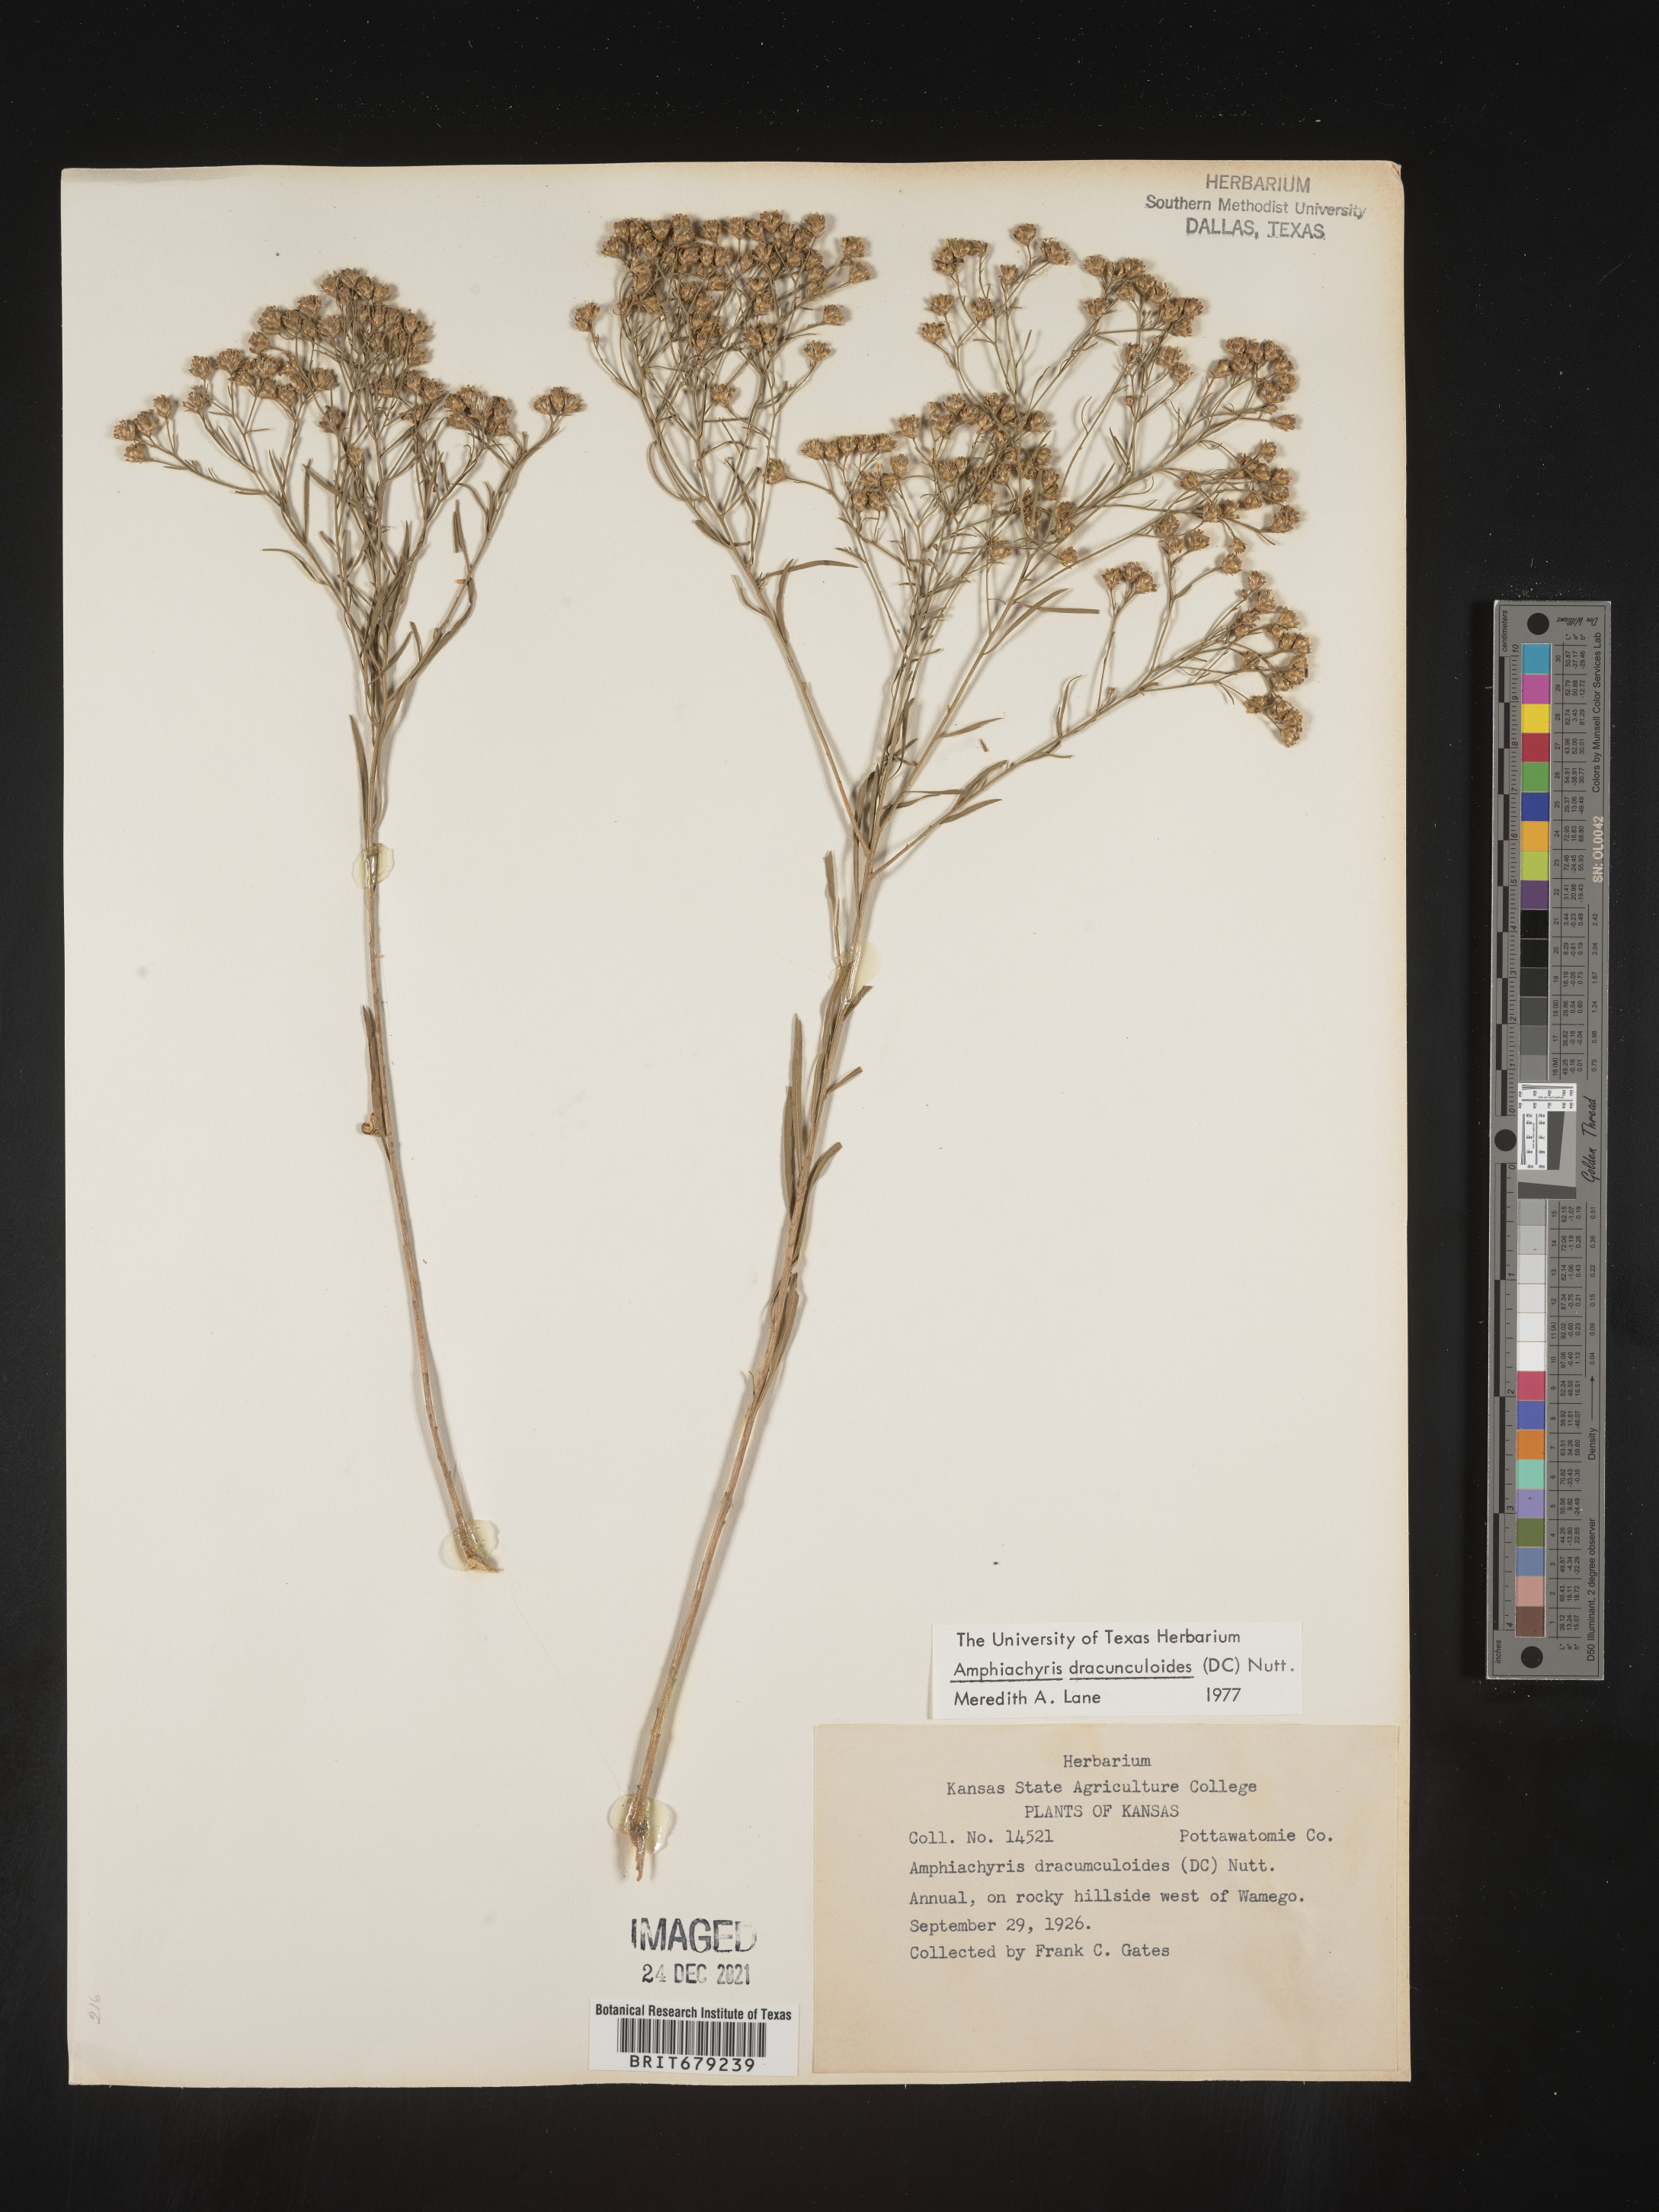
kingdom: Plantae
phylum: Tracheophyta
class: Magnoliopsida
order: Asterales
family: Asteraceae
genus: Amphiachyris
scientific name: Amphiachyris dracunculoides
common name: Broomweed
